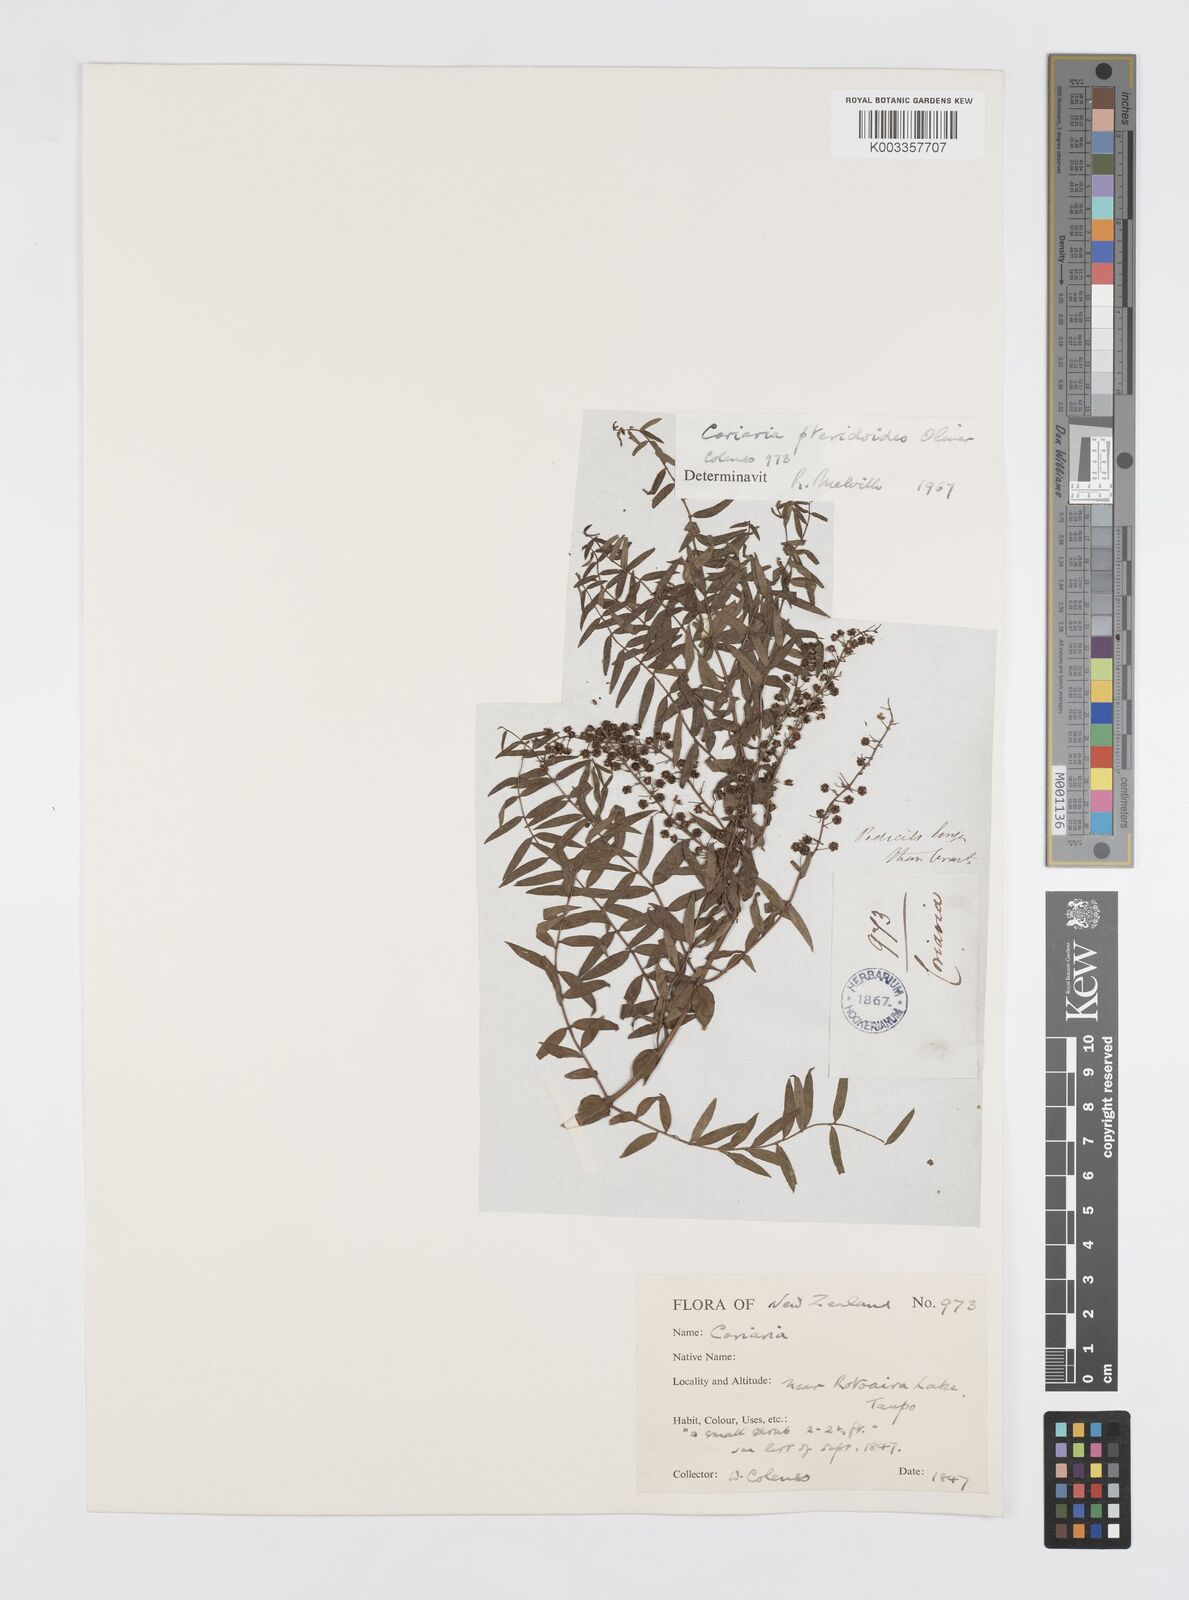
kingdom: Plantae
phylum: Tracheophyta
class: Magnoliopsida
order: Cucurbitales
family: Coriariaceae
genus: Coriaria
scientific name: Coriaria pteridoides
